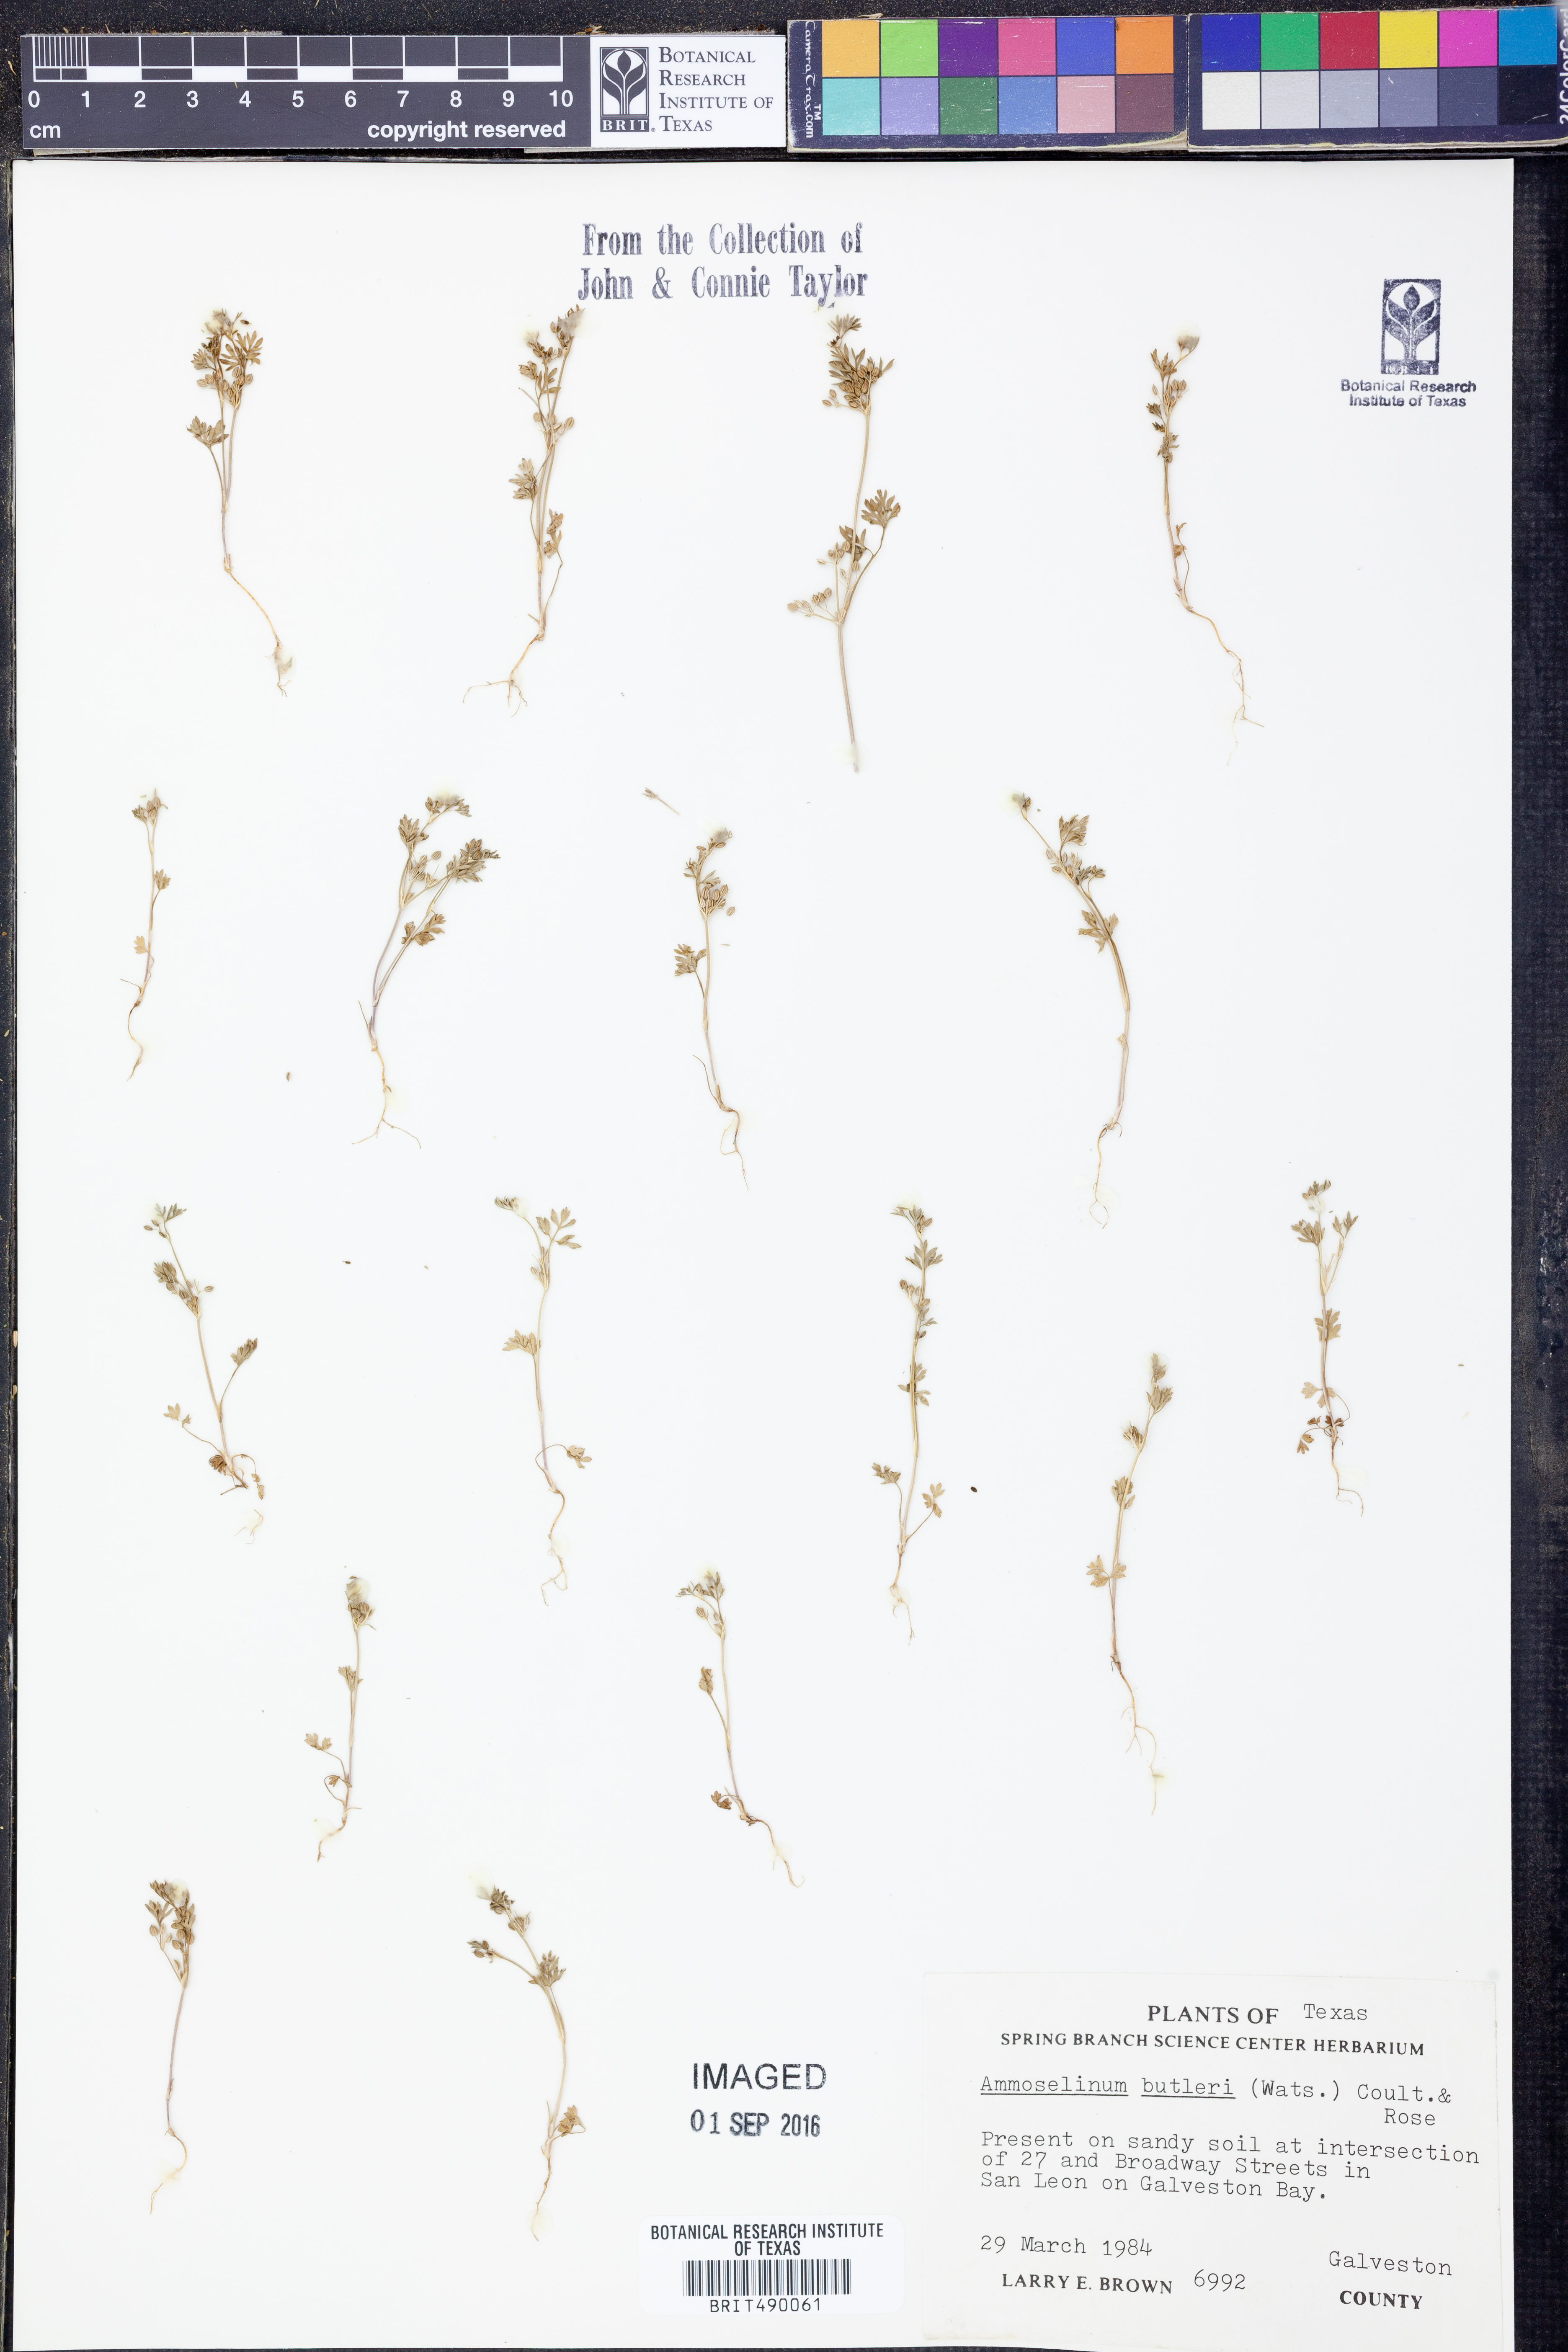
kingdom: Plantae
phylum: Tracheophyta
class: Magnoliopsida
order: Apiales
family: Apiaceae
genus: Ammoselinum
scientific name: Ammoselinum butleri
